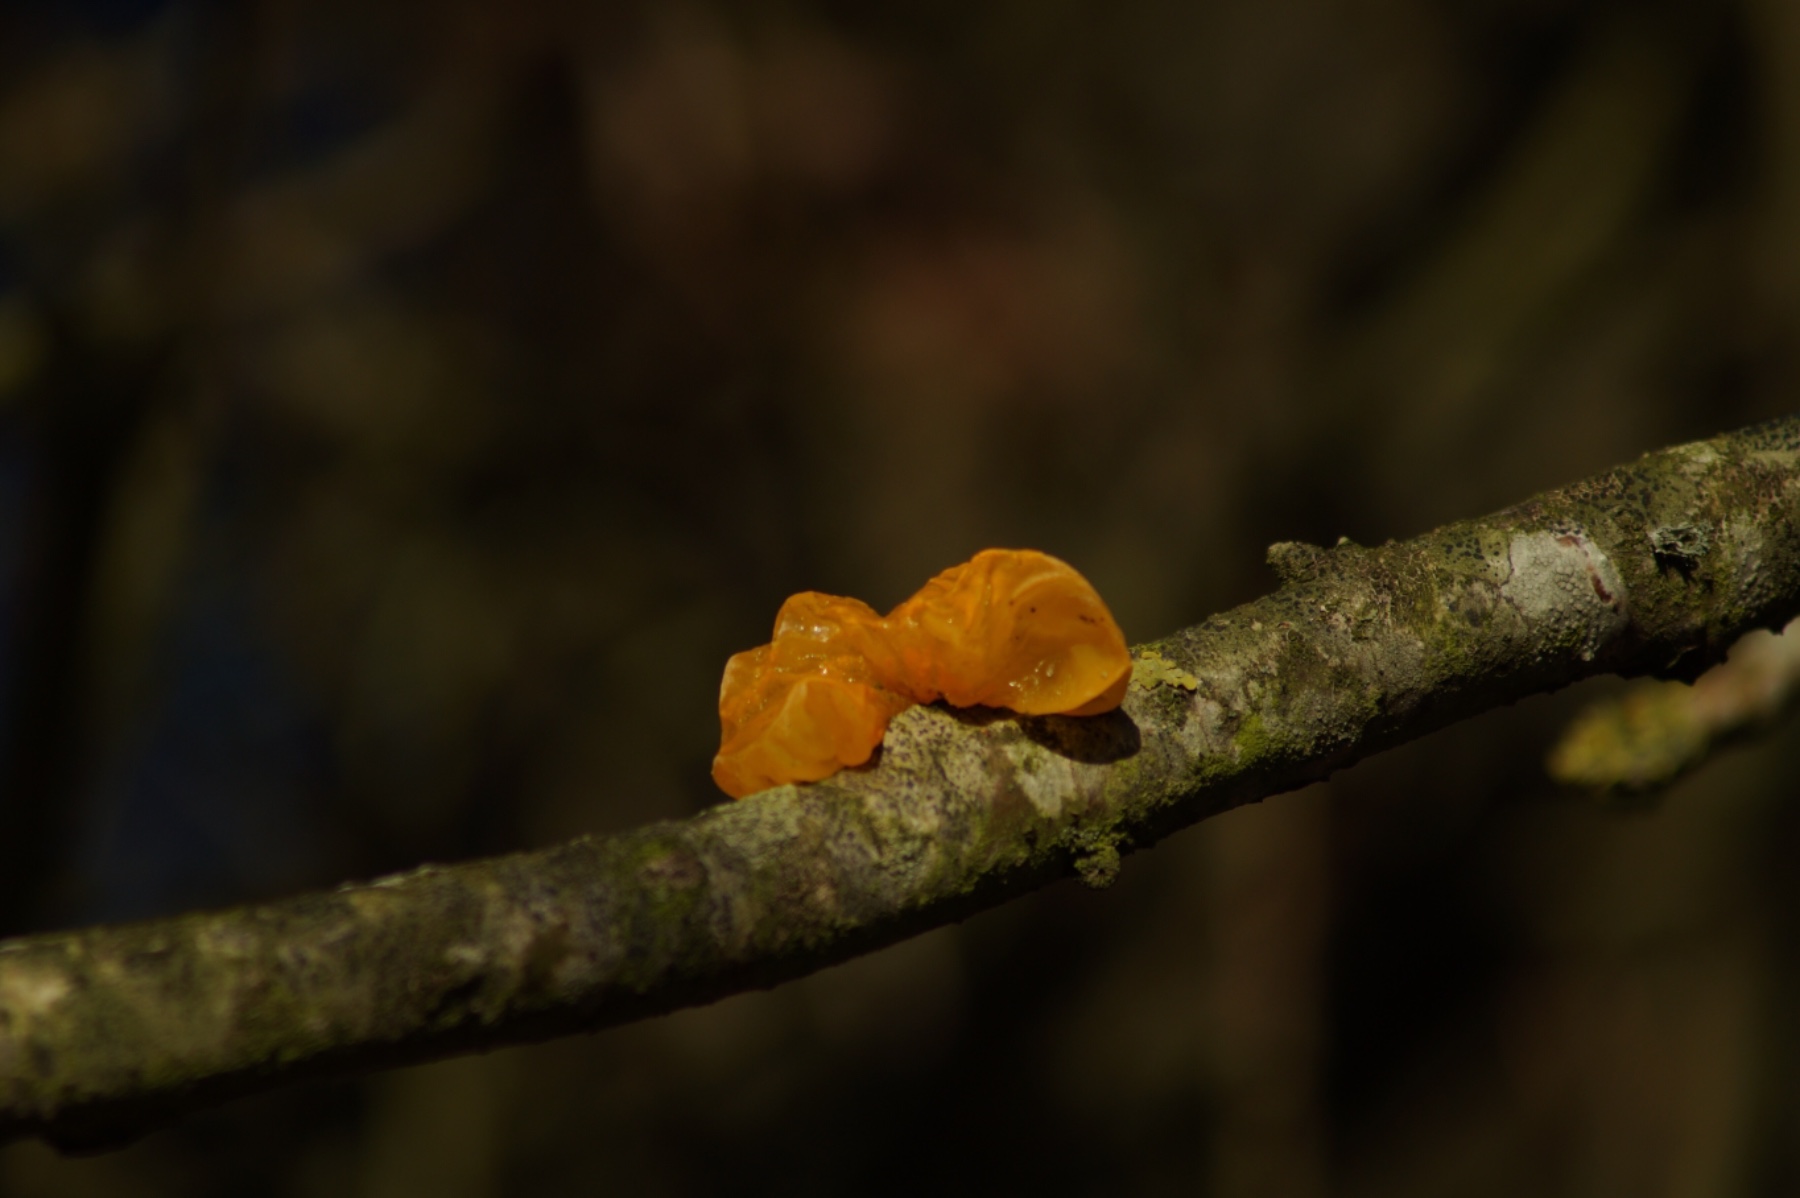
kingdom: Fungi
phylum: Basidiomycota
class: Tremellomycetes
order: Tremellales
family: Tremellaceae
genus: Tremella
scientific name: Tremella mesenterica
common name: gul bævresvamp
